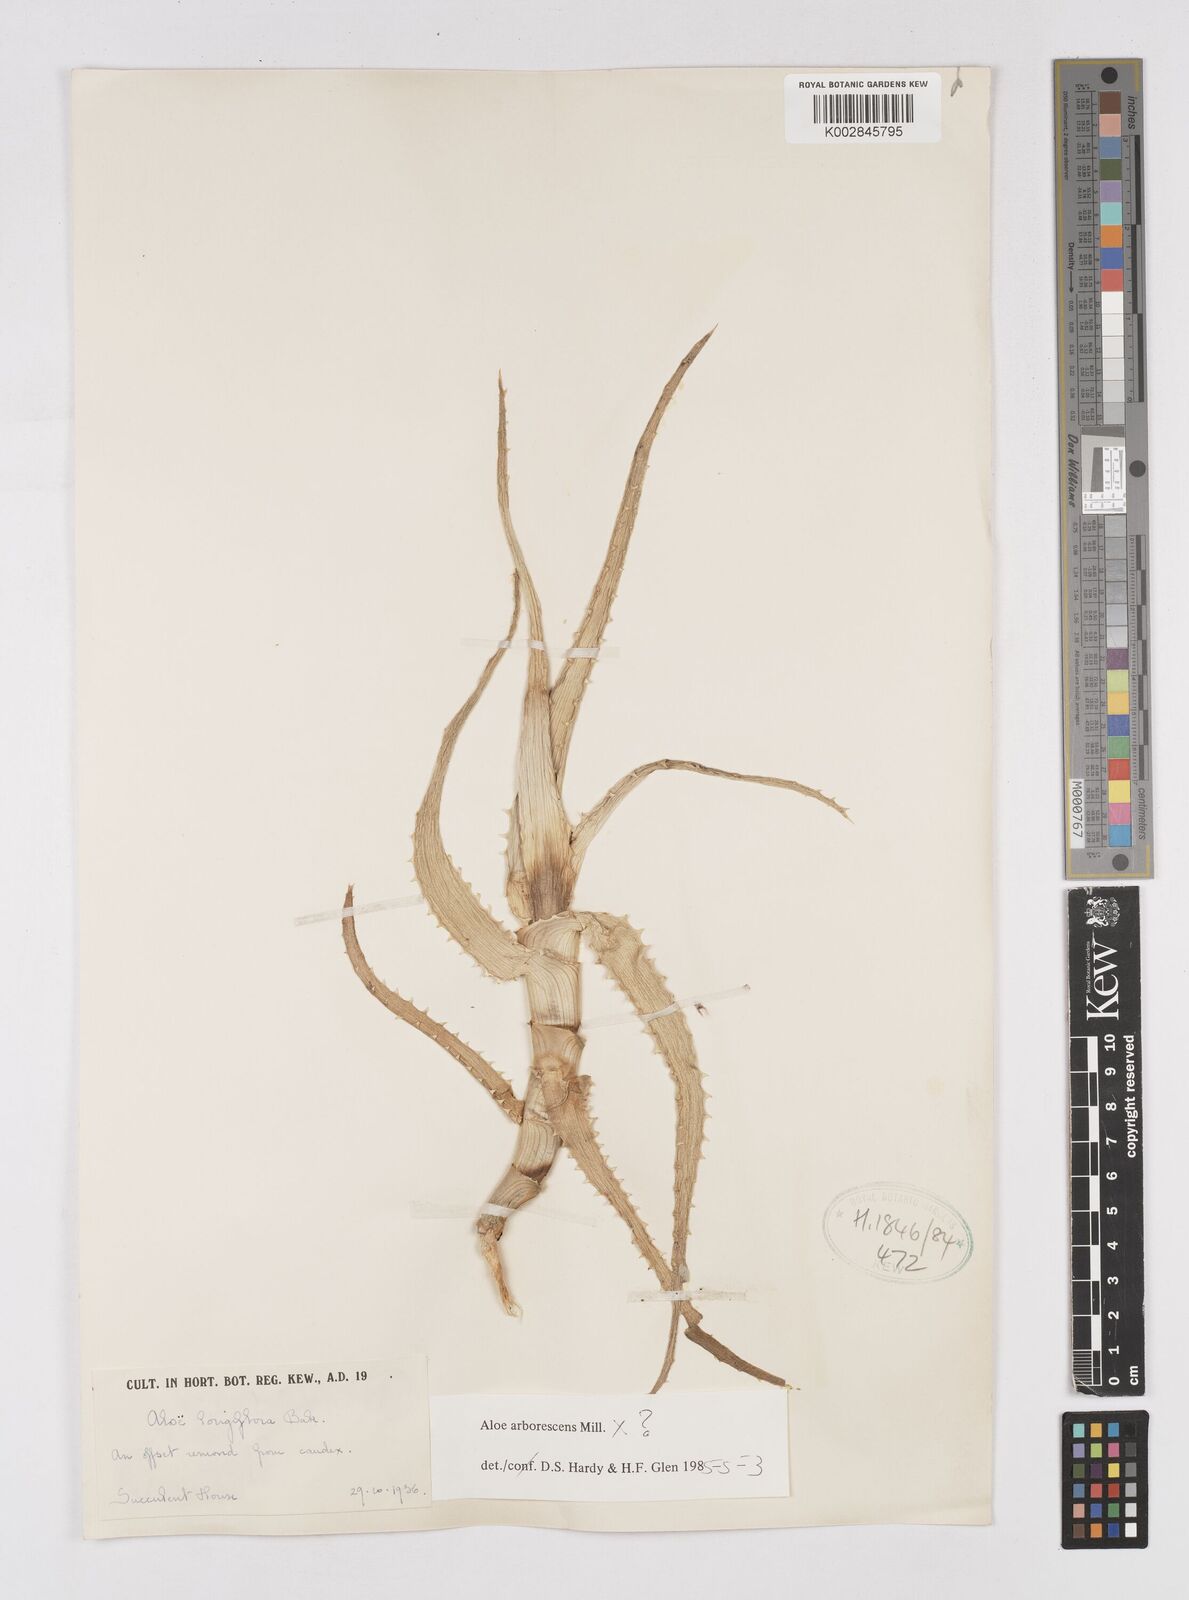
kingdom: Plantae
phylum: Tracheophyta
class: Liliopsida
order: Asparagales
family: Asphodelaceae
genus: Aloe
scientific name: Aloe arborescens
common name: Candelabra aloe
